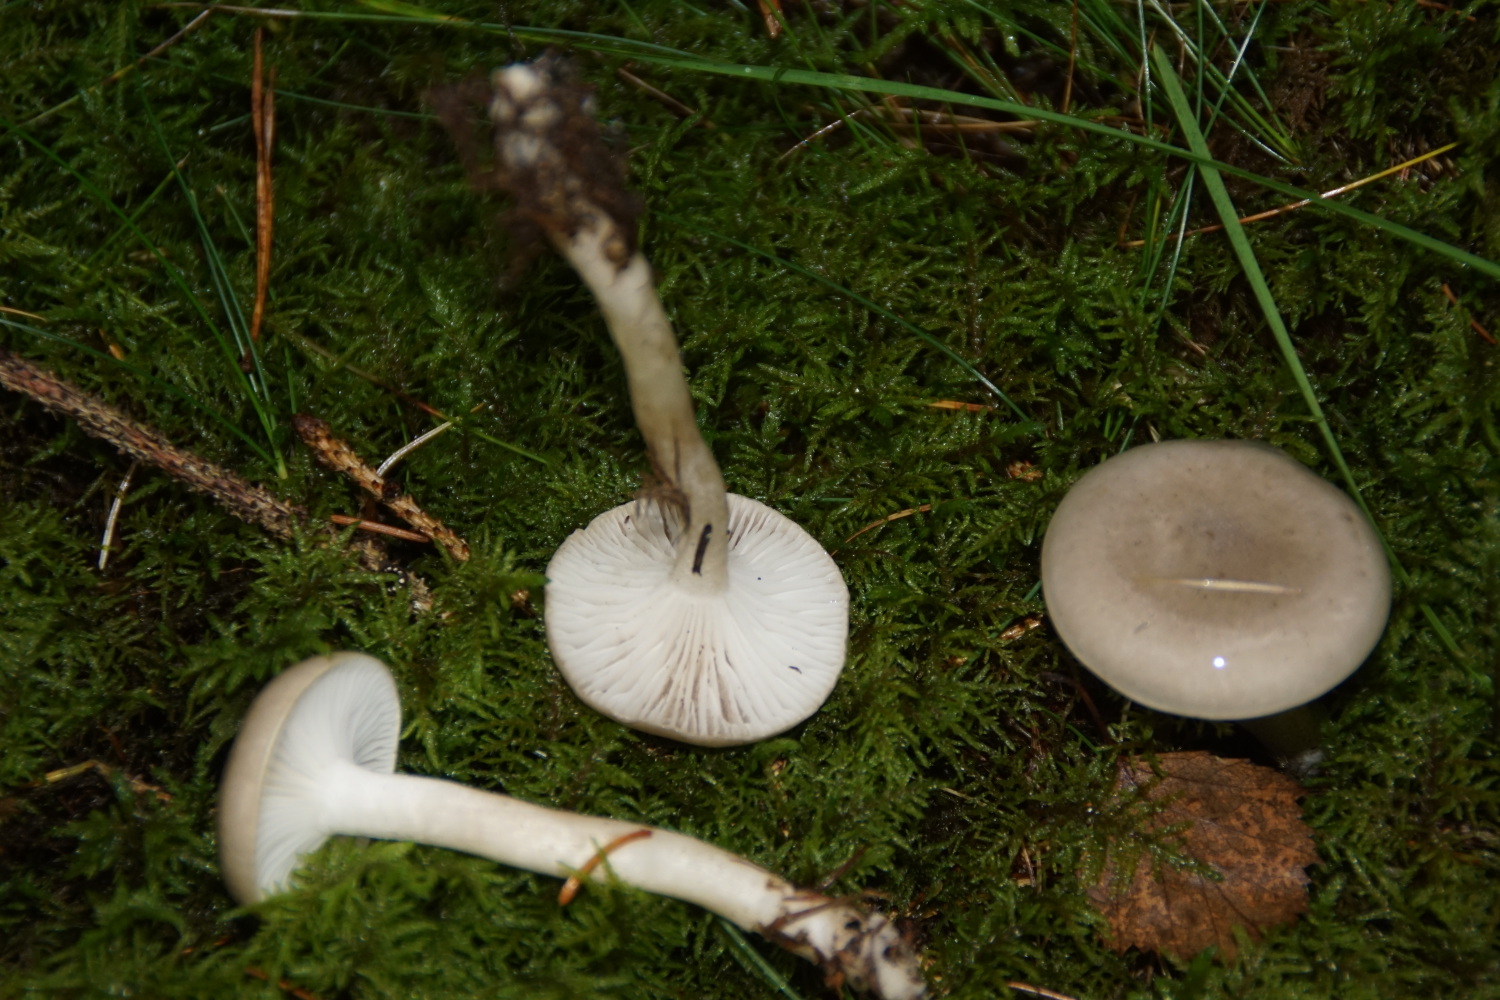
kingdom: Fungi
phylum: Basidiomycota
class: Agaricomycetes
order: Agaricales
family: Hygrophoraceae
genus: Hygrophorus
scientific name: Hygrophorus agathosmus
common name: vellugtende sneglehat
